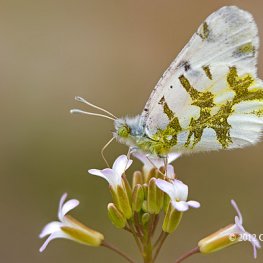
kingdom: Animalia
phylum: Arthropoda
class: Insecta
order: Lepidoptera
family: Pieridae
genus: Euchloe
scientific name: Euchloe olympia
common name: Olympia Marble
